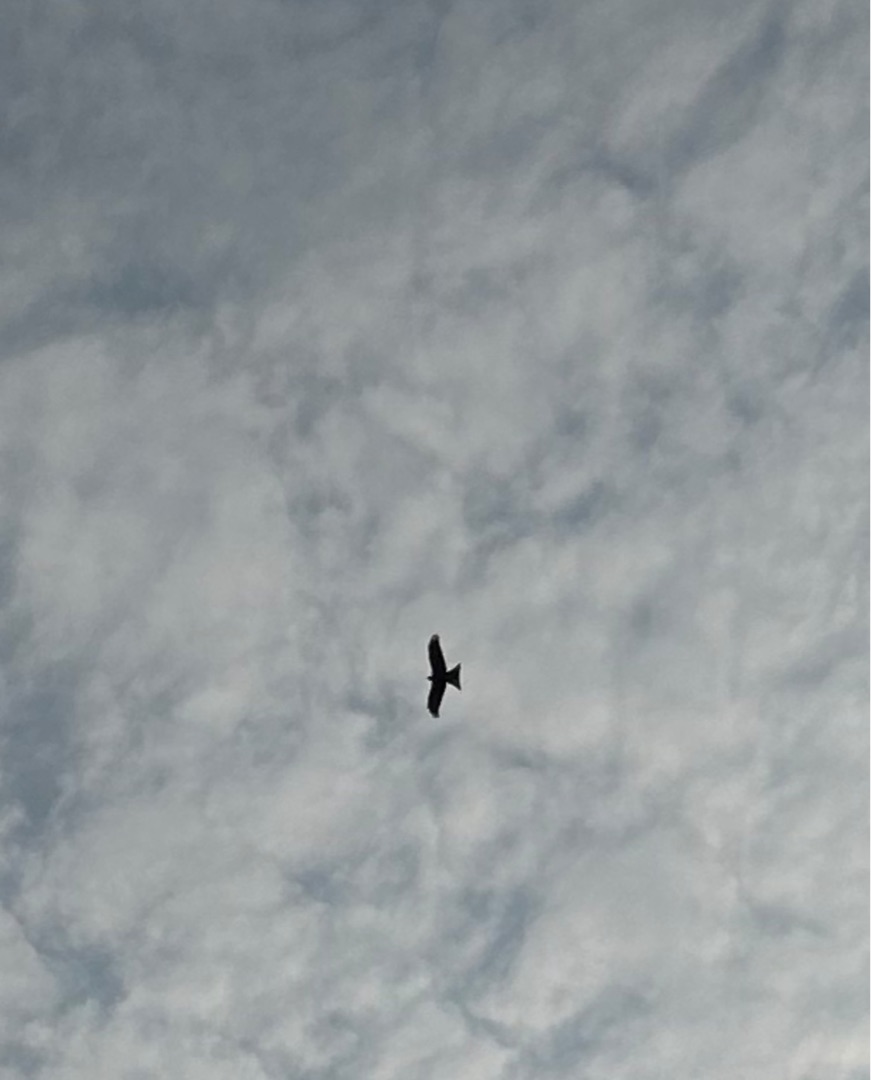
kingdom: Animalia
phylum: Chordata
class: Aves
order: Accipitriformes
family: Accipitridae
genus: Milvus
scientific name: Milvus milvus
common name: Rød glente
